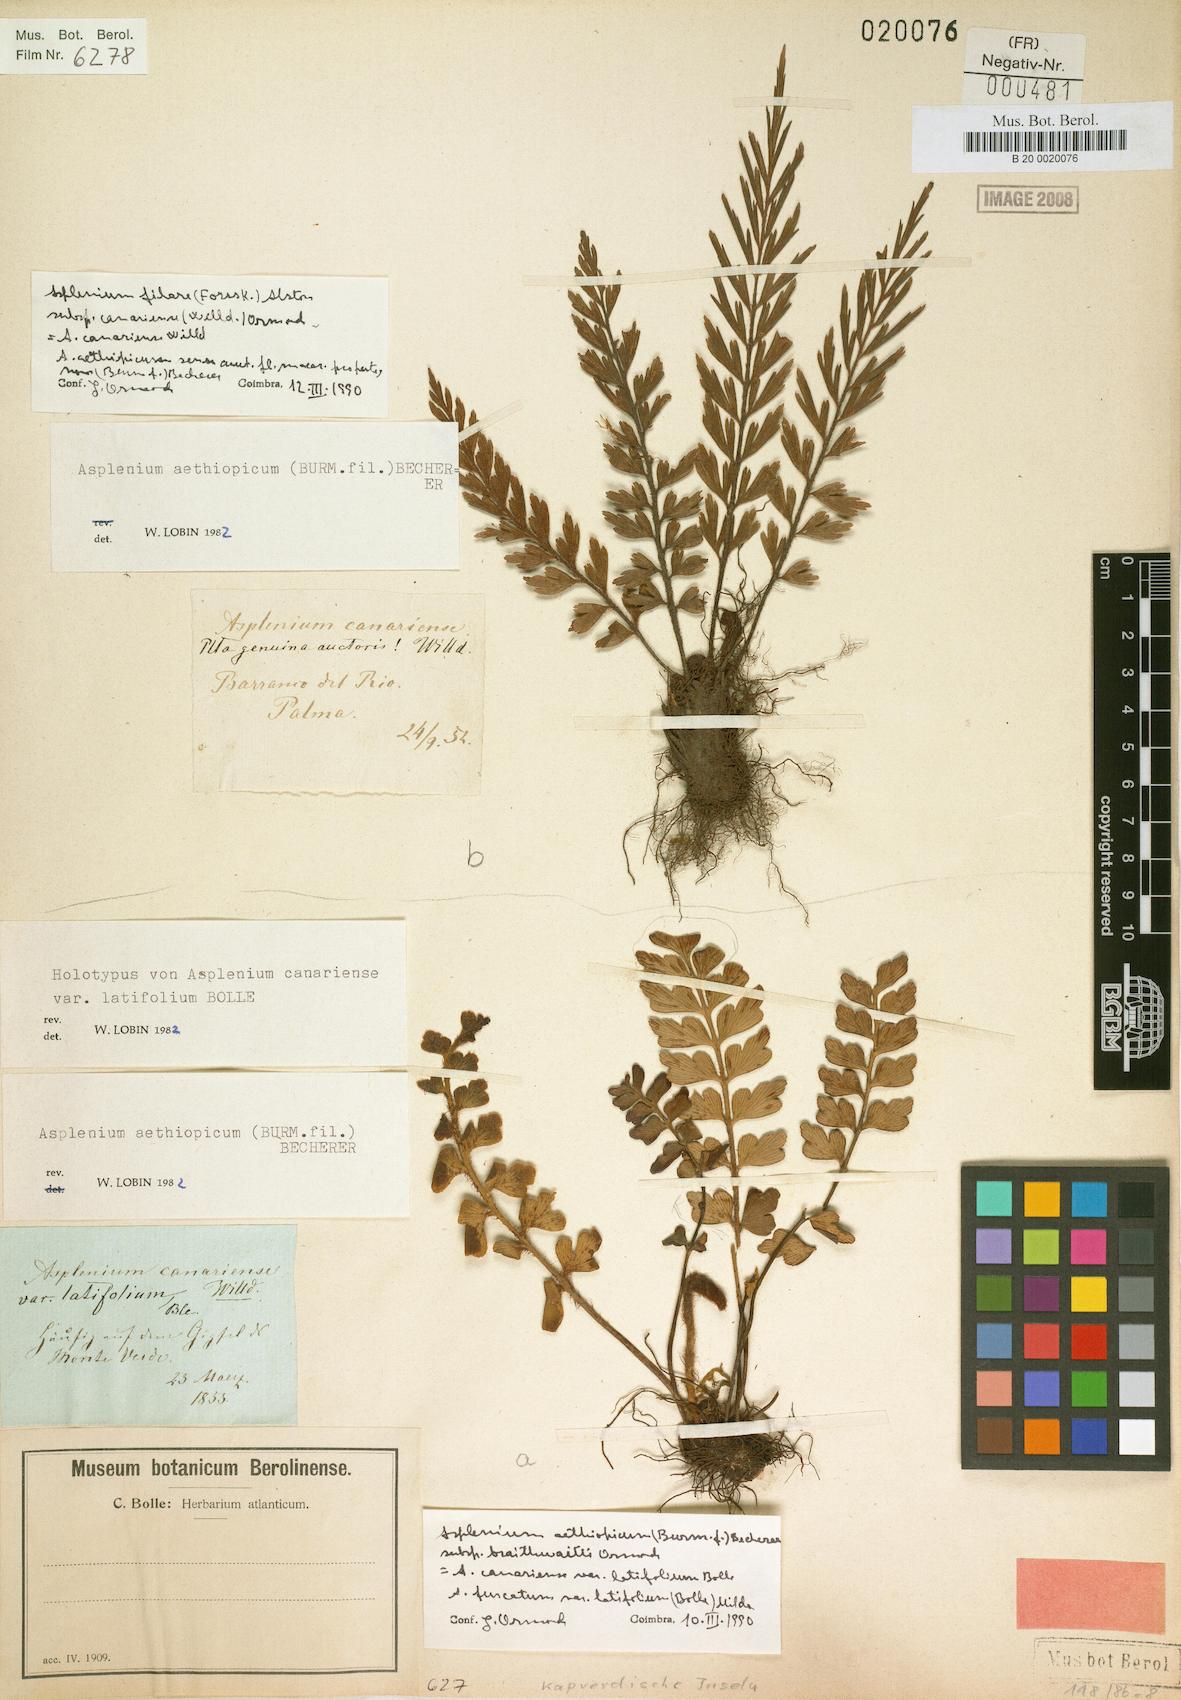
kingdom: Plantae
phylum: Tracheophyta
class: Polypodiopsida
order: Polypodiales
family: Aspleniaceae
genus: Asplenium
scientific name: Asplenium canariense
